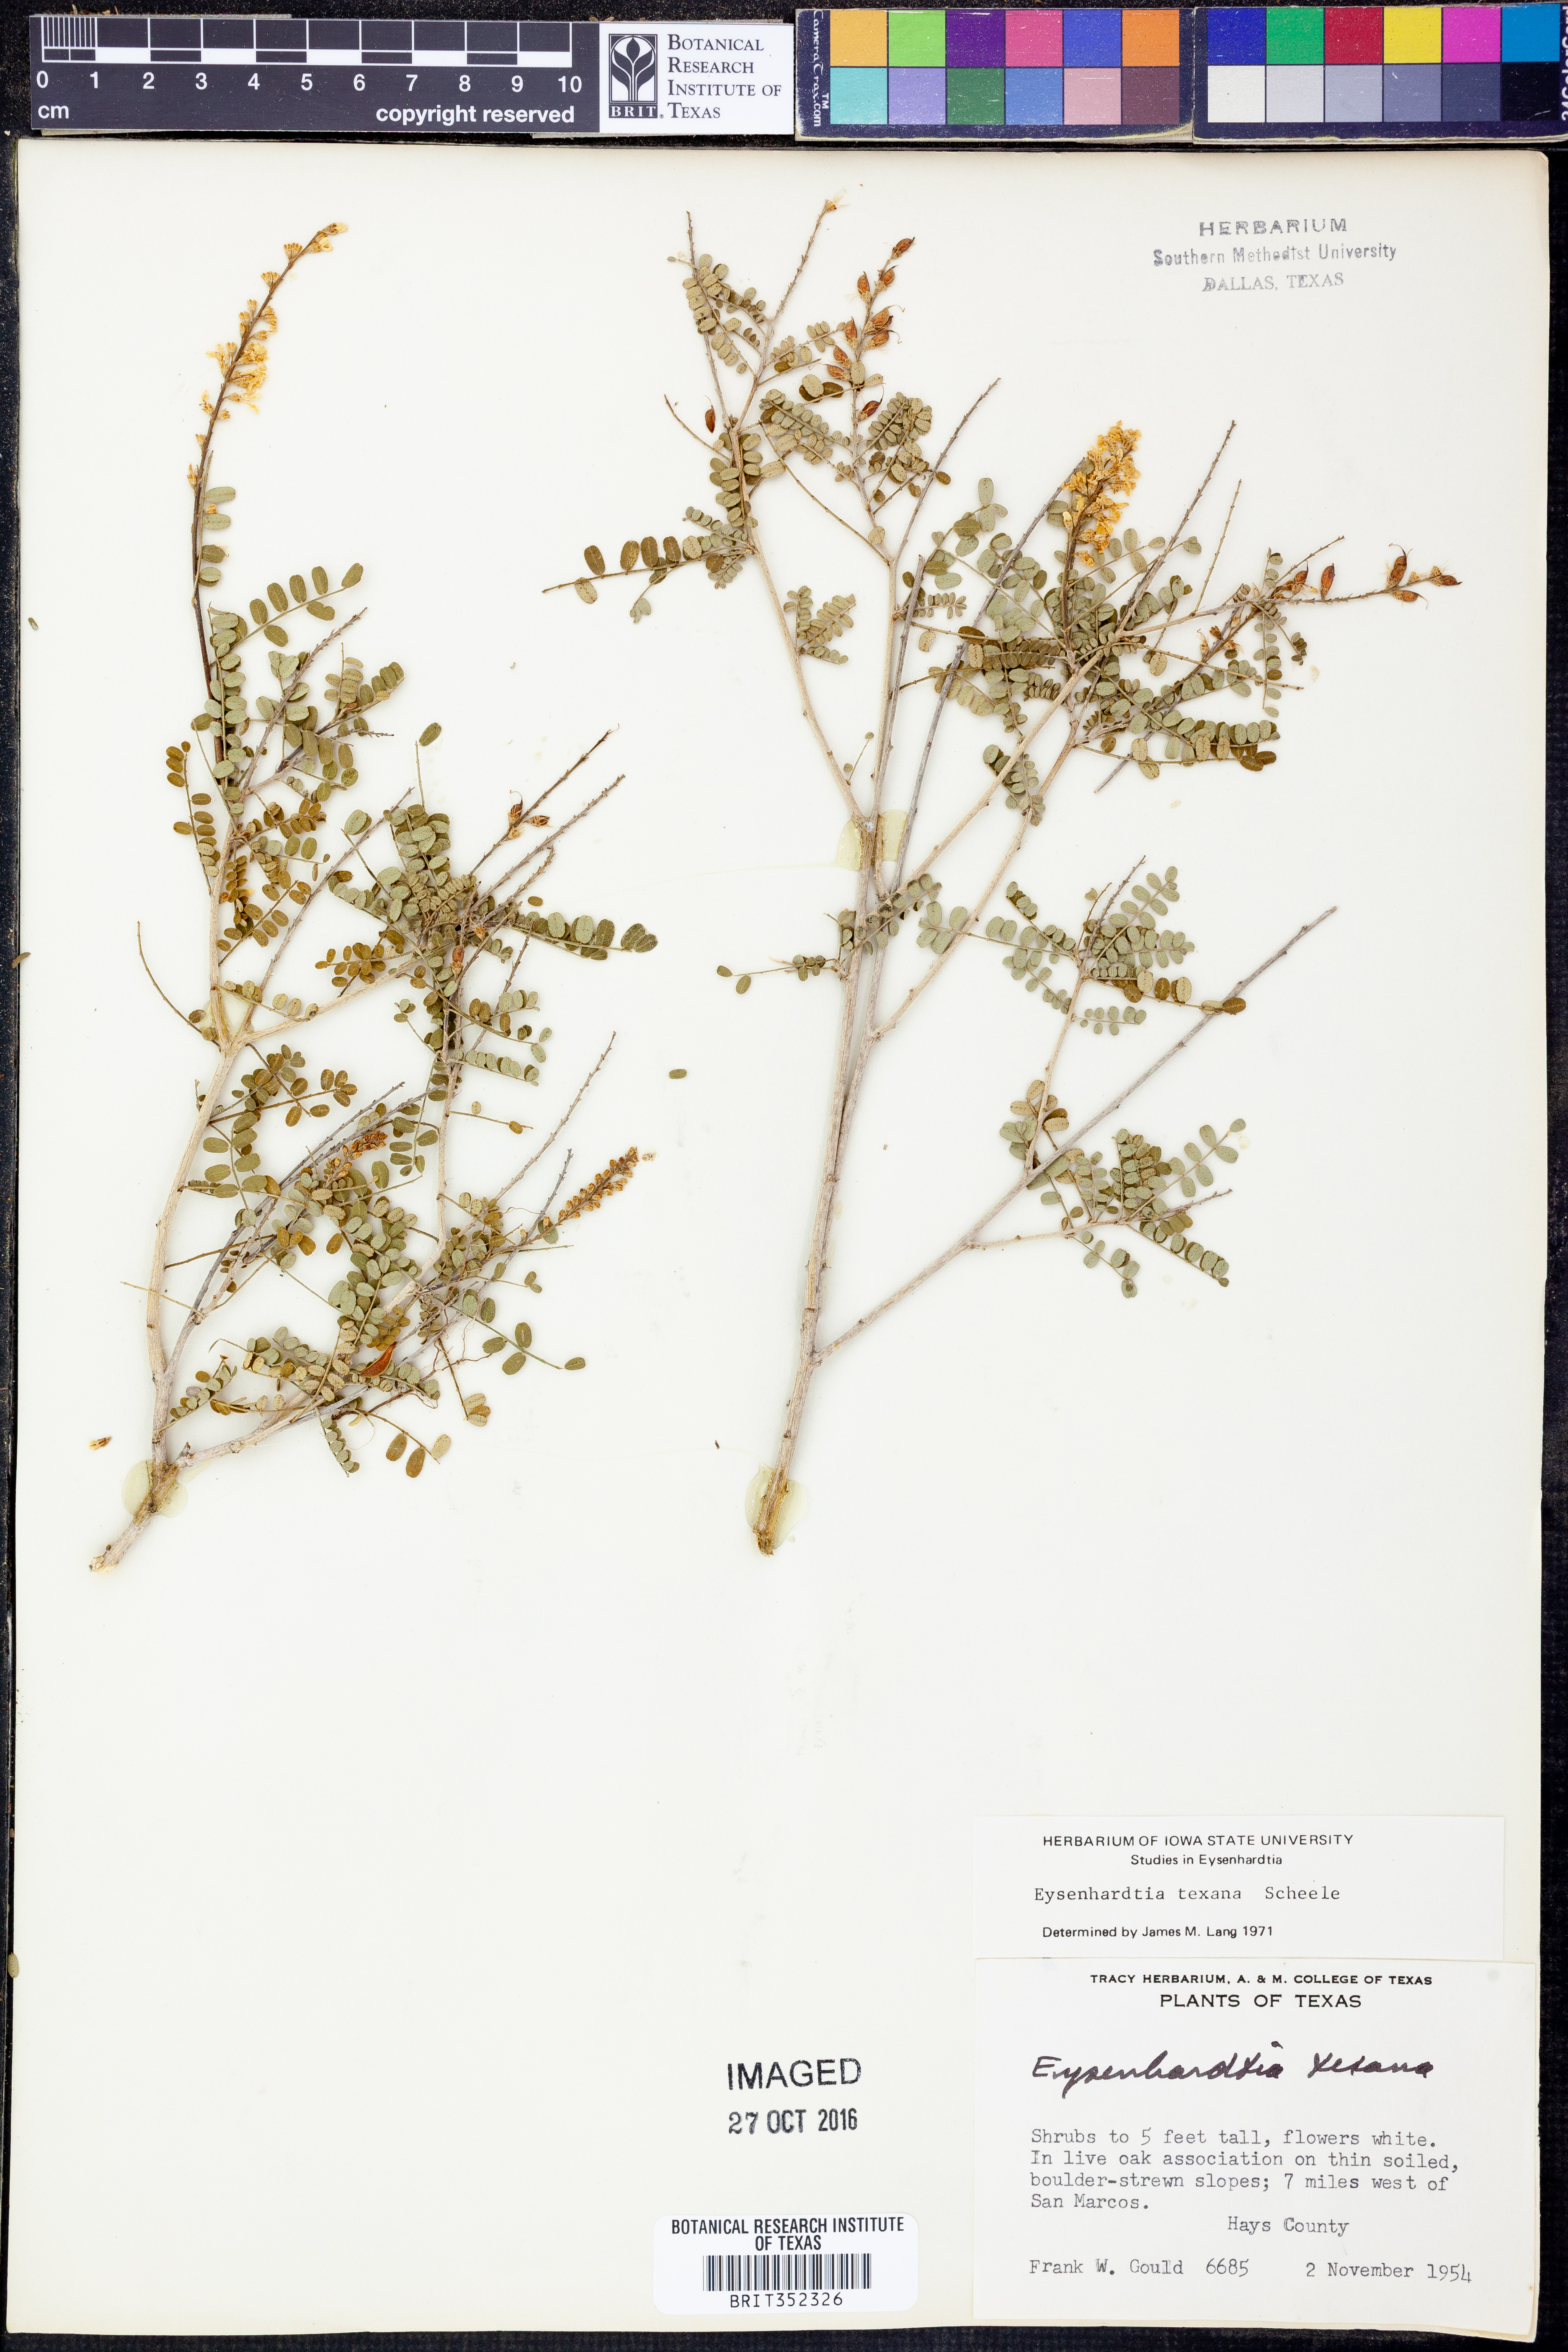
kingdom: Plantae
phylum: Tracheophyta
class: Magnoliopsida
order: Fabales
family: Fabaceae
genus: Eysenhardtia
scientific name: Eysenhardtia texana
